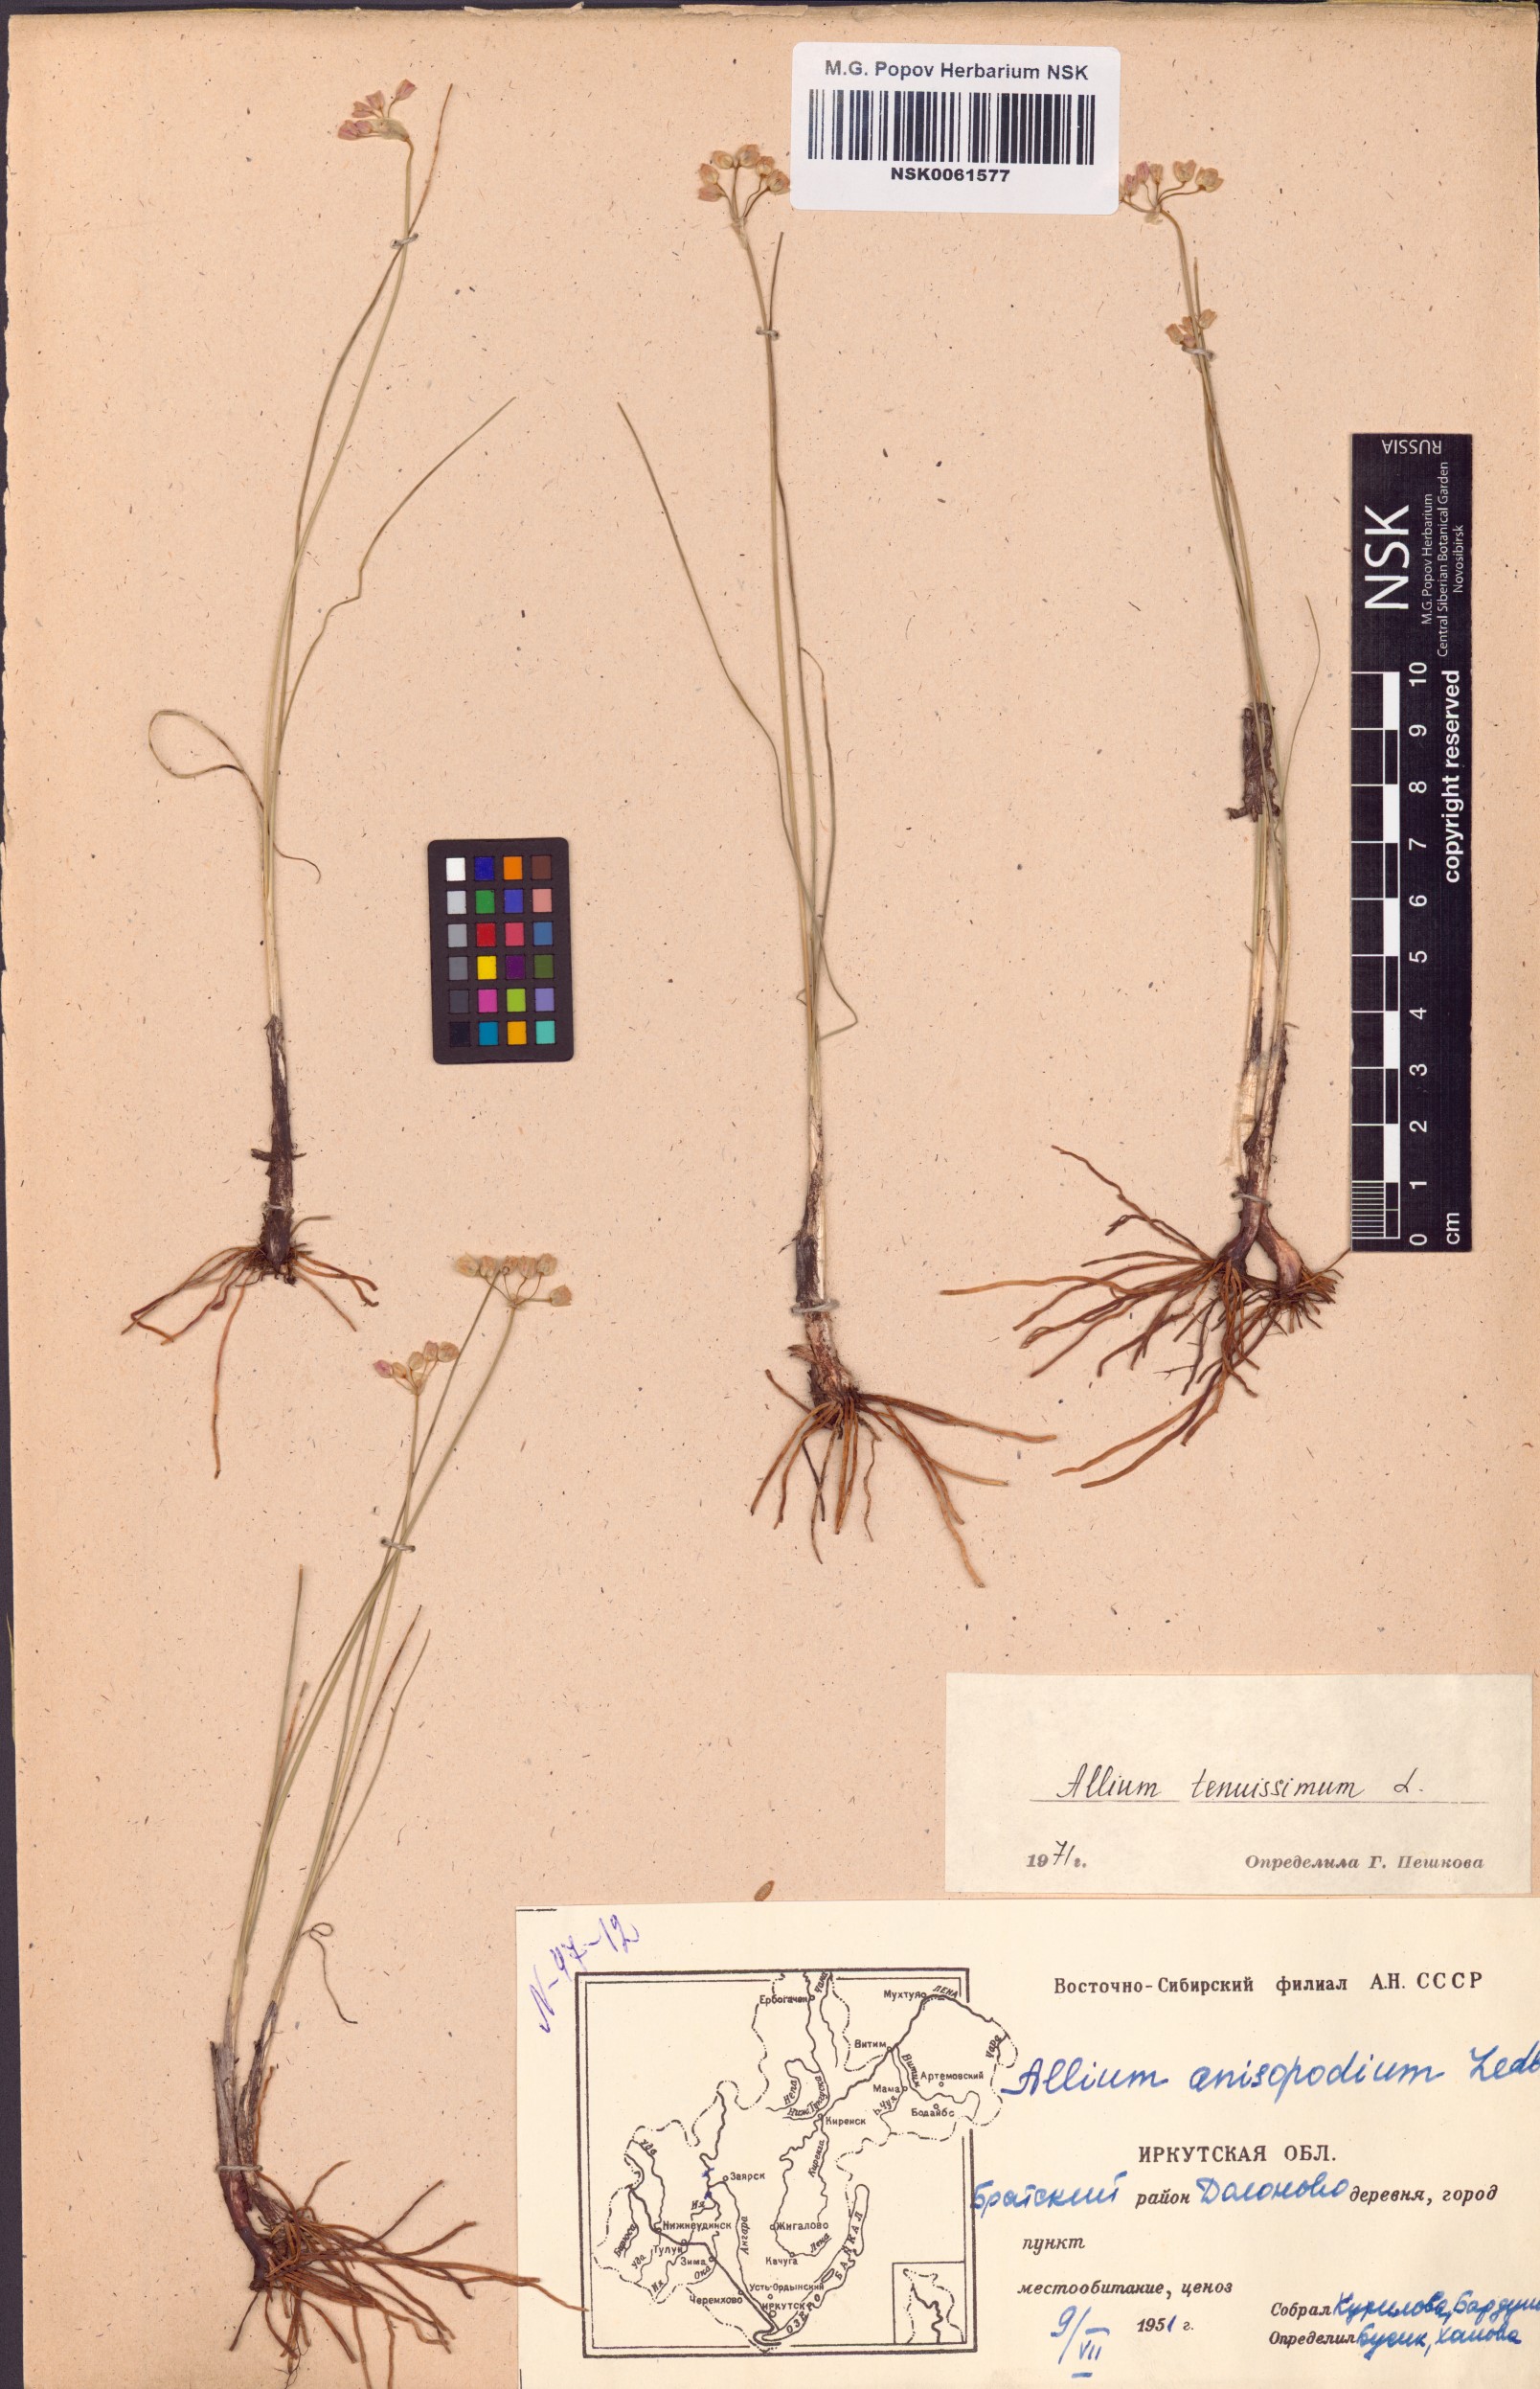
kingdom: Plantae
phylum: Tracheophyta
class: Liliopsida
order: Asparagales
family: Amaryllidaceae
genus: Allium
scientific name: Allium tenuissimum
